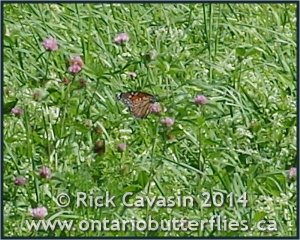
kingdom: Animalia
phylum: Arthropoda
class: Insecta
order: Lepidoptera
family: Nymphalidae
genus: Danaus
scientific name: Danaus plexippus
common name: Monarch
